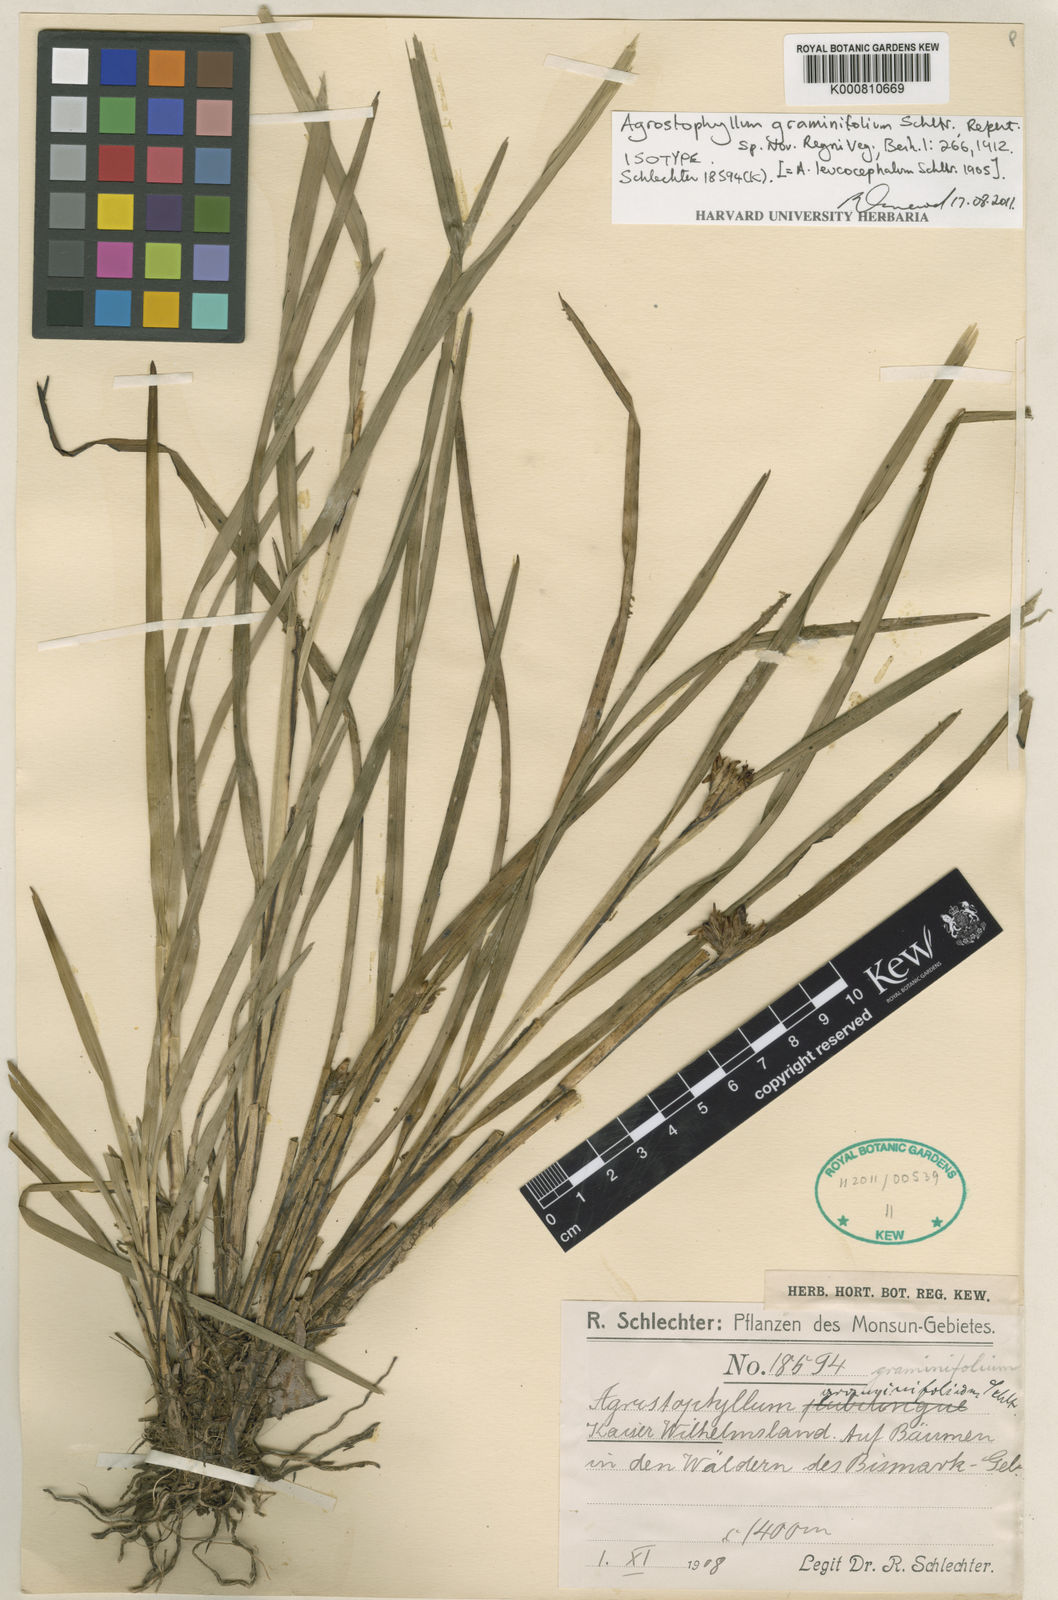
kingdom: Plantae
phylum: Tracheophyta
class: Liliopsida
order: Asparagales
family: Orchidaceae
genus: Agrostophyllum
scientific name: Agrostophyllum graminifolium
